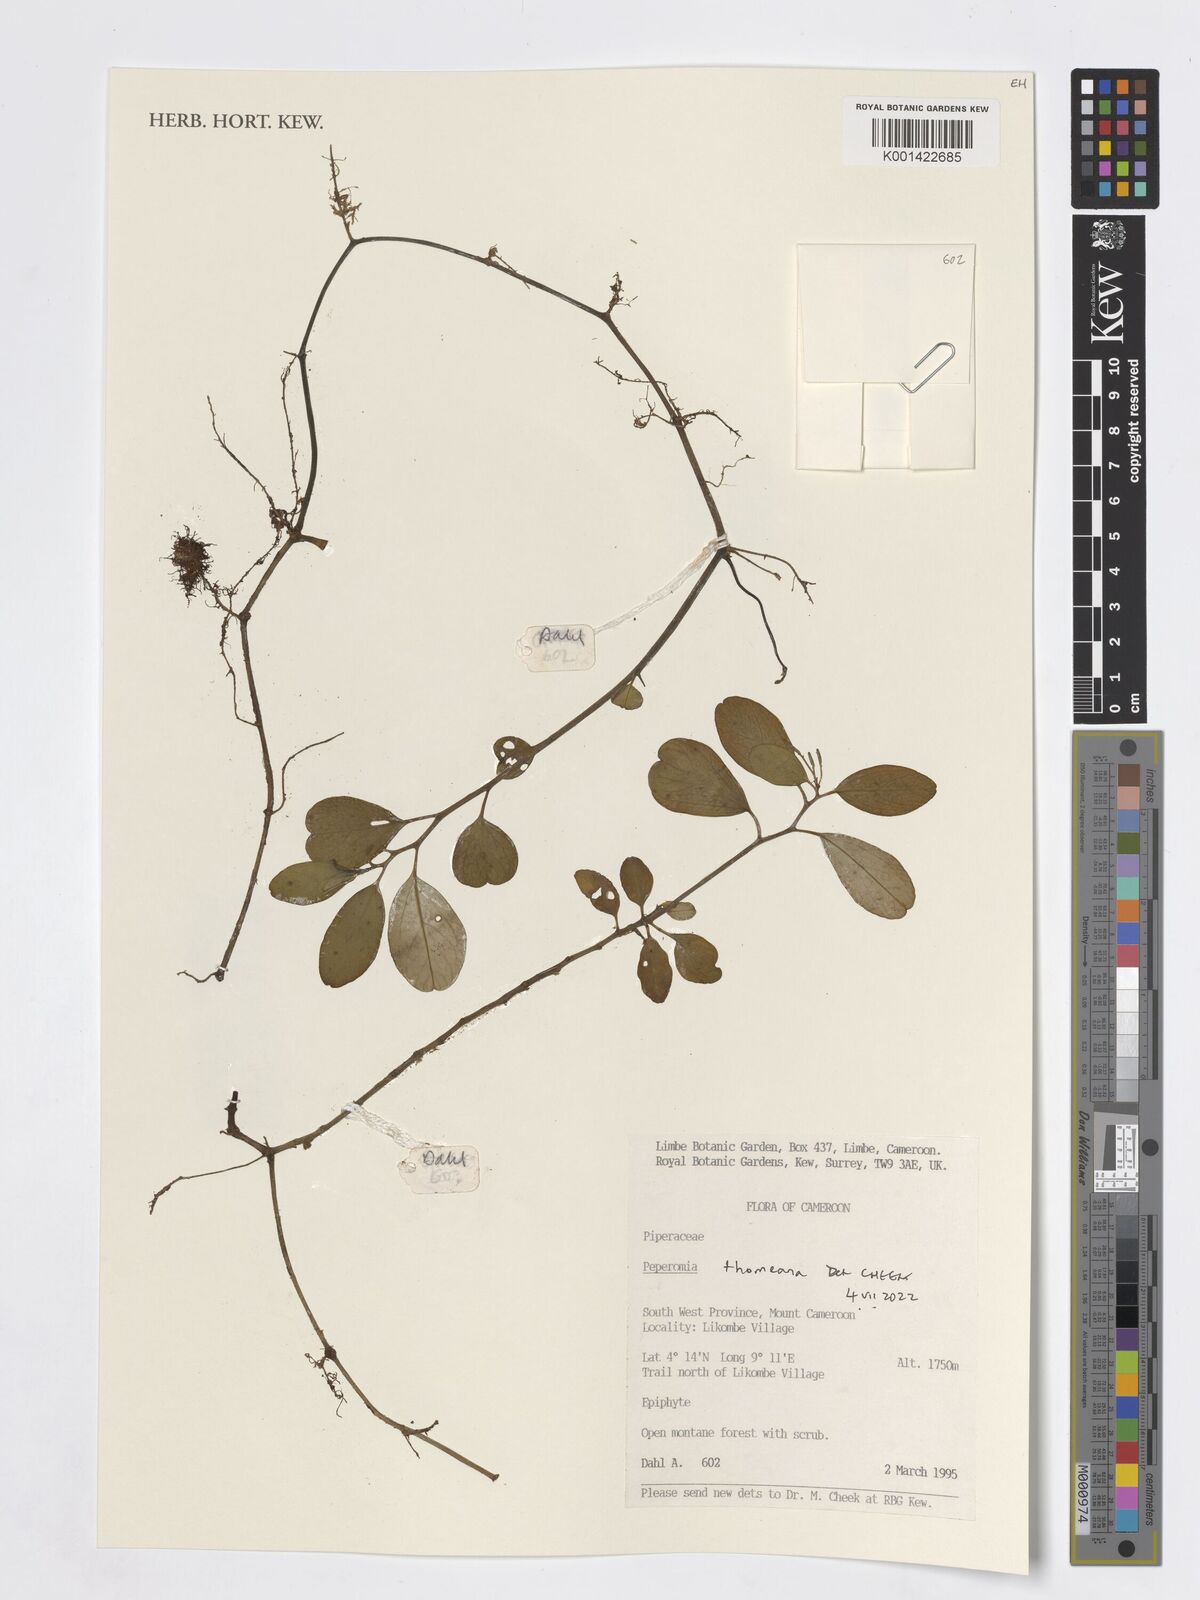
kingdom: Plantae
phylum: Tracheophyta
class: Magnoliopsida
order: Piperales
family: Piperaceae
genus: Peperomia
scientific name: Peperomia thomeana
